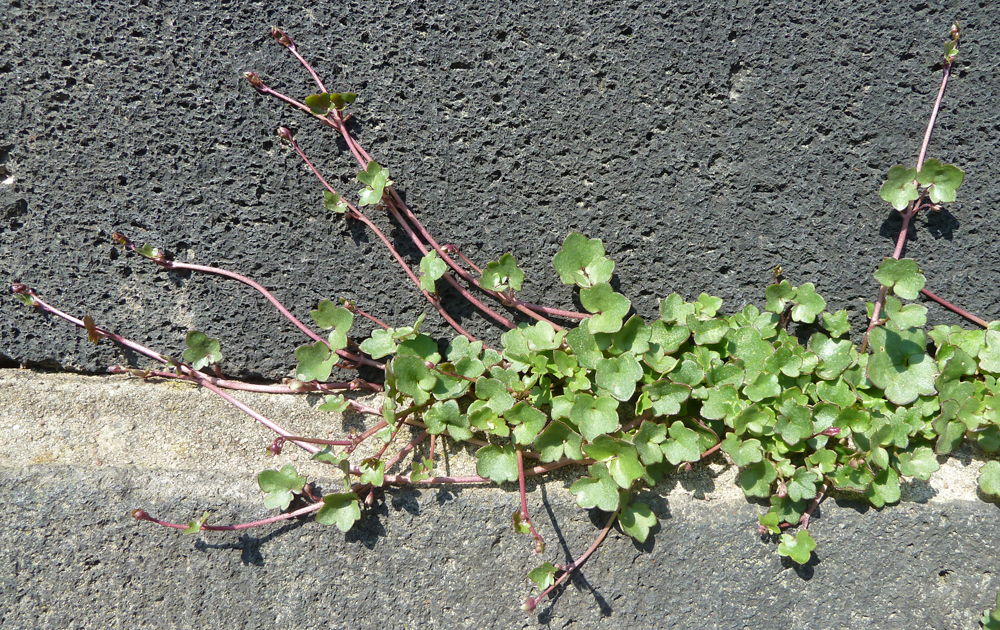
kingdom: Plantae
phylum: Tracheophyta
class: Magnoliopsida
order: Lamiales
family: Plantaginaceae
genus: Cymbalaria
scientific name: Cymbalaria muralis
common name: Ivy-leaved toadflax
